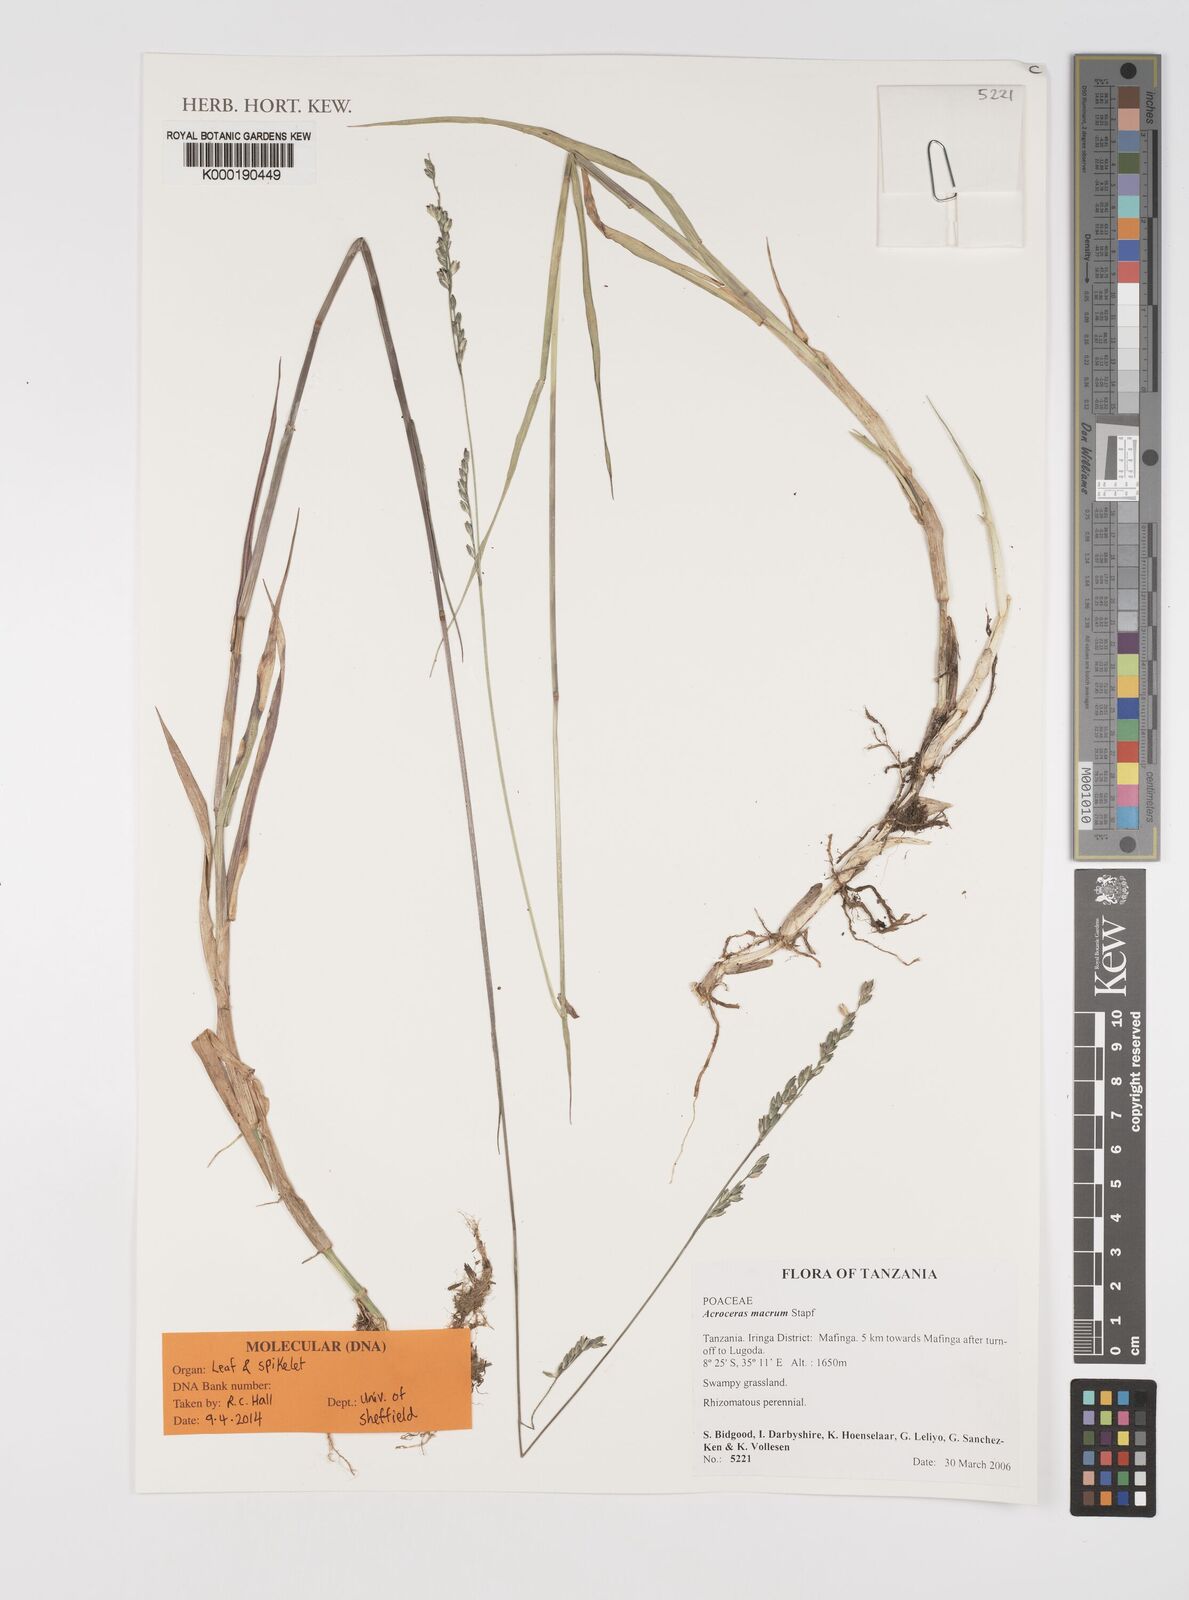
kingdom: Plantae
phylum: Tracheophyta
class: Liliopsida
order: Poales
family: Poaceae
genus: Acroceras
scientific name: Acroceras macrum
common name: Nyl grass
